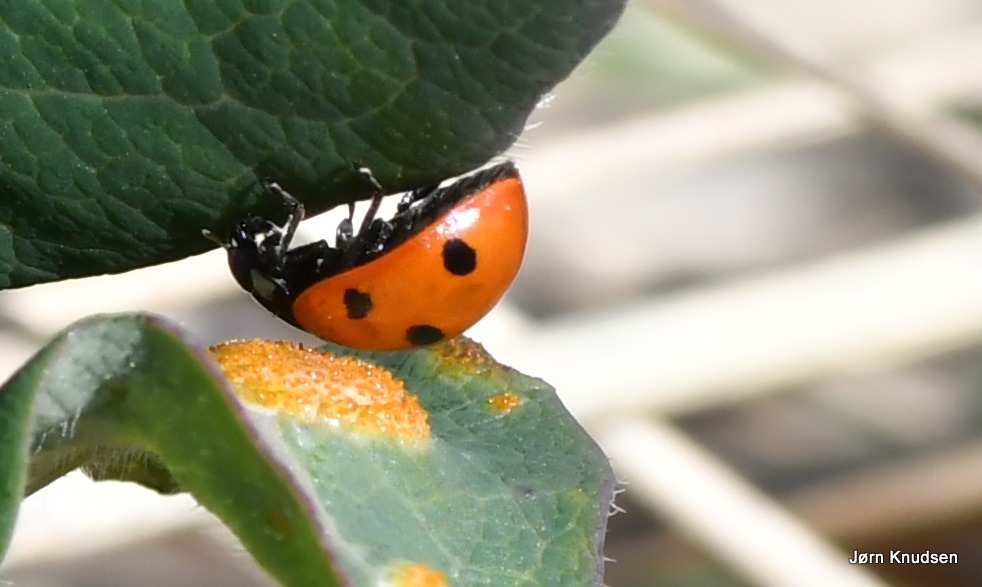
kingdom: Animalia
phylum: Arthropoda
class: Insecta
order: Coleoptera
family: Coccinellidae
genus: Coccinella
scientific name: Coccinella septempunctata
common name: Syvplettet mariehøne
